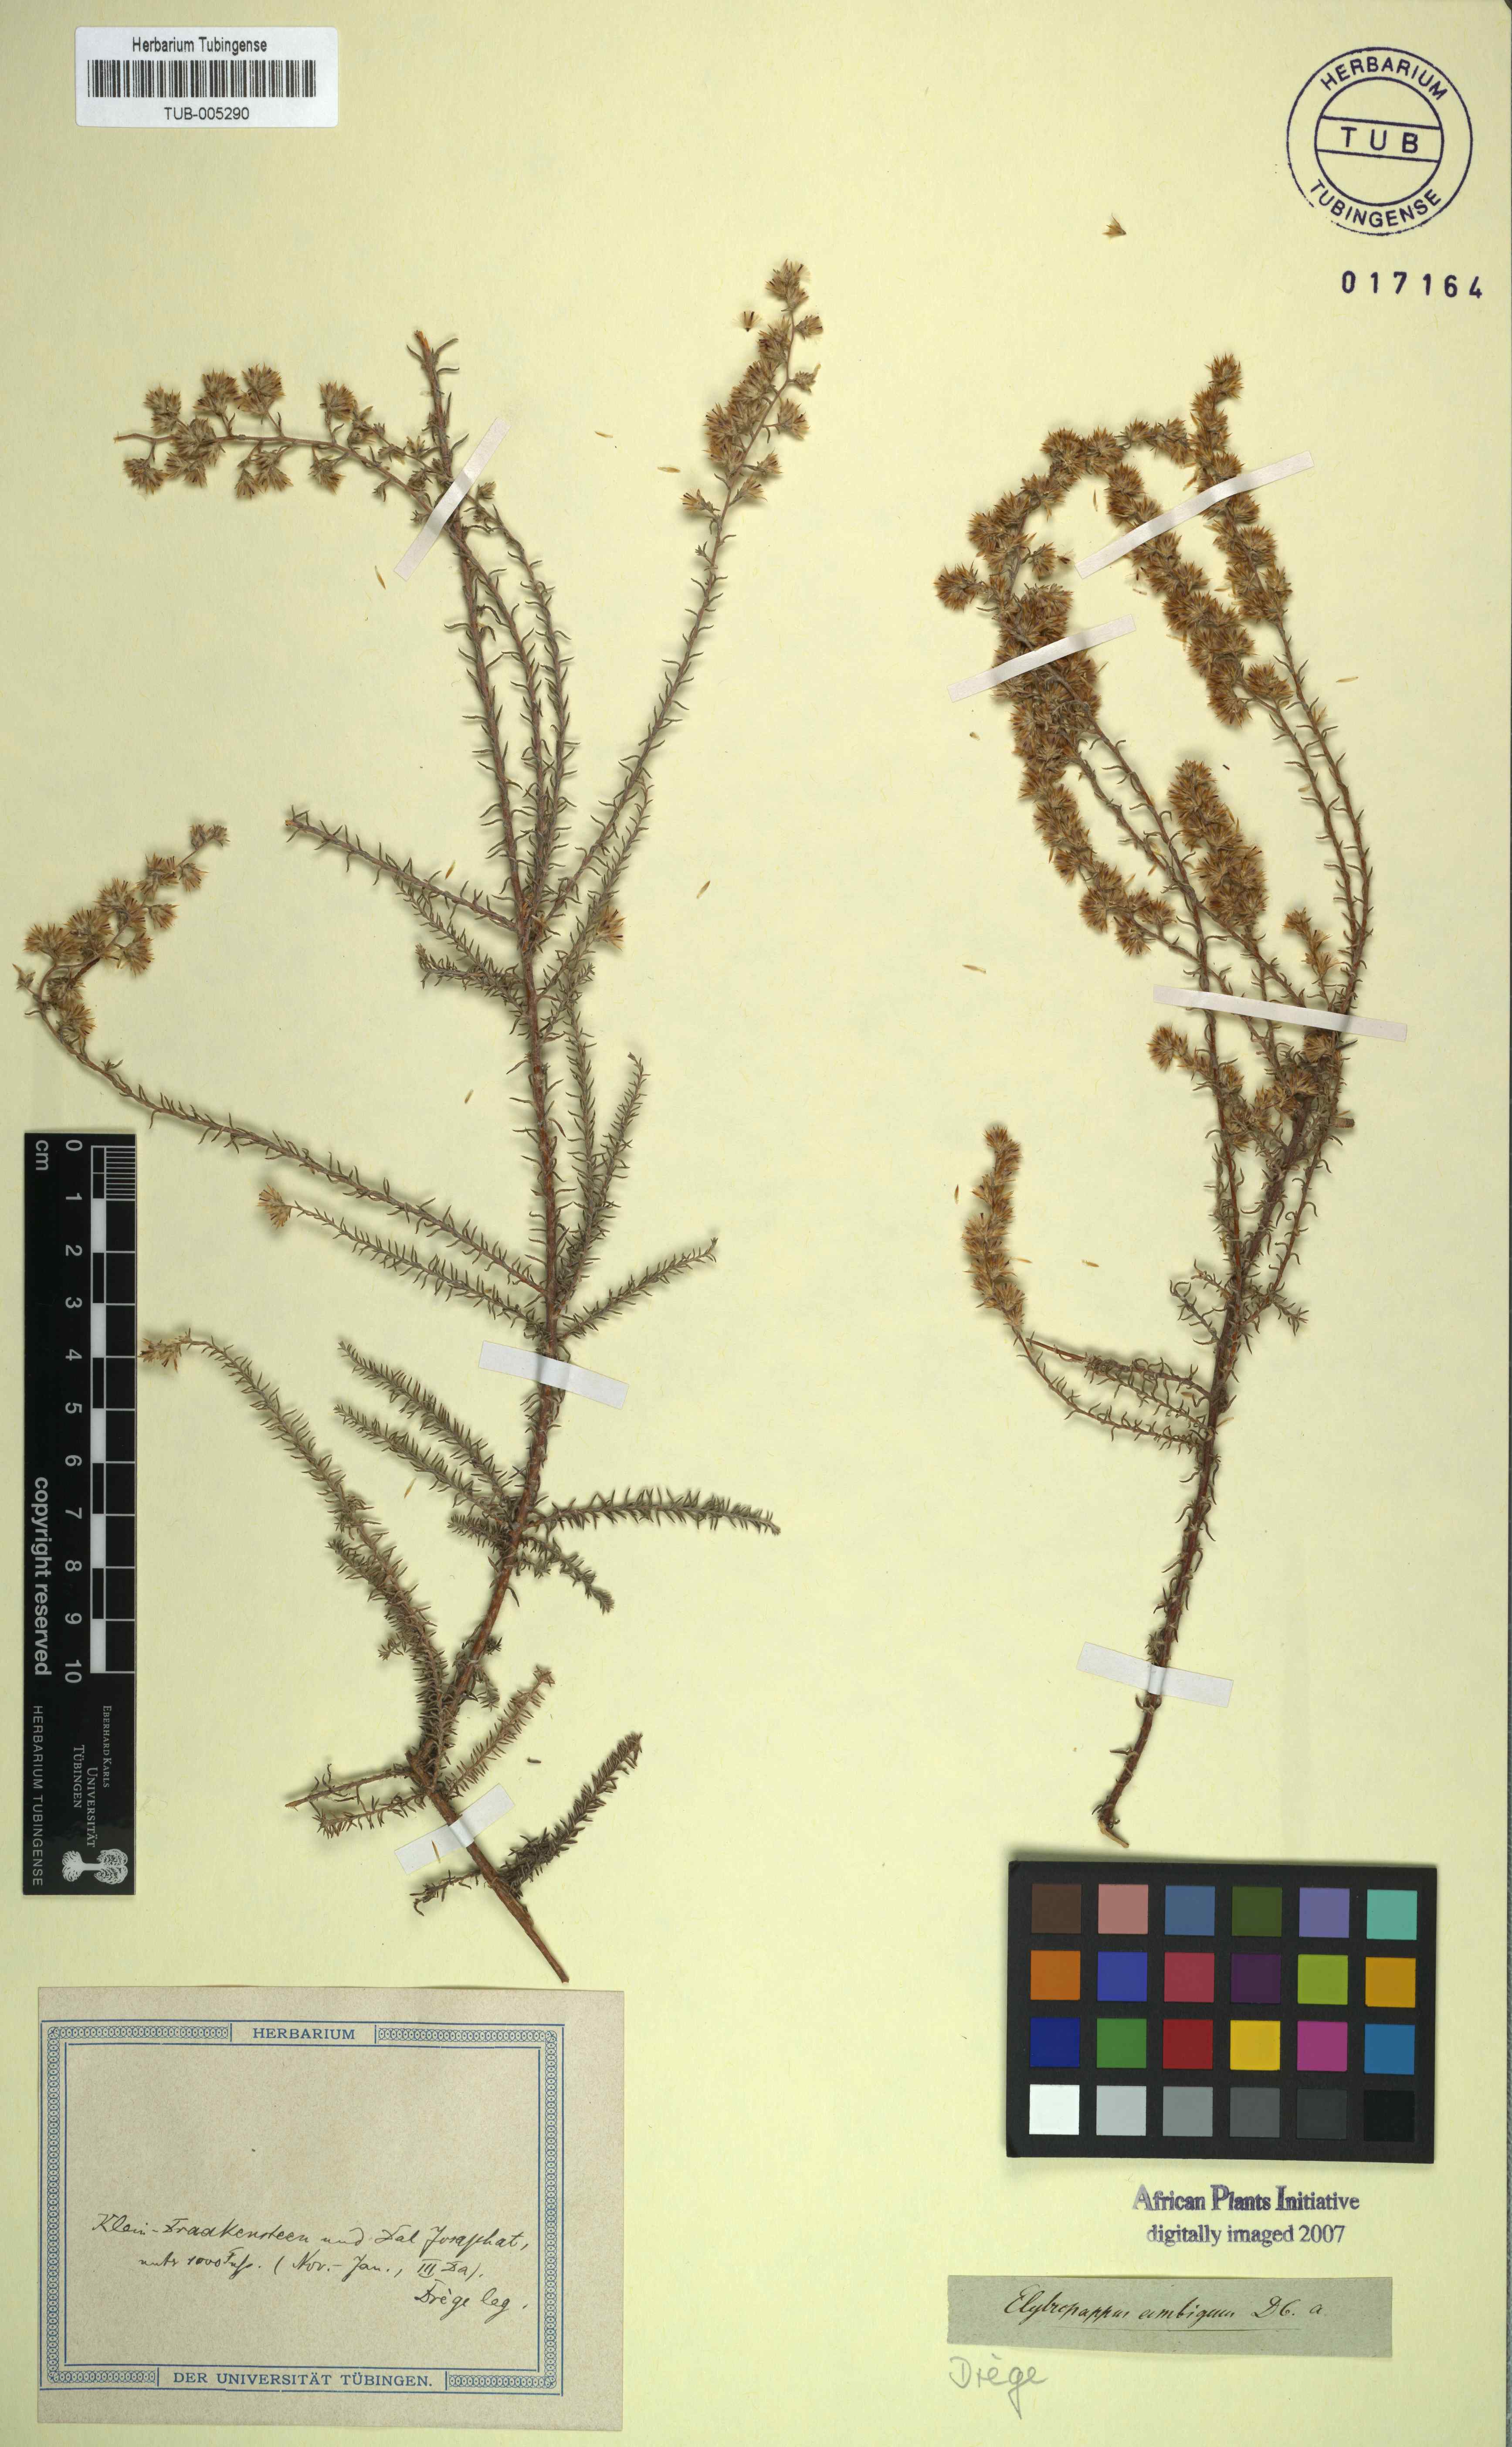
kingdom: Plantae
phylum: Tracheophyta
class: Magnoliopsida
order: Asterales
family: Asteraceae
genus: Myrovernix
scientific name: Myrovernix gnaphaloides
